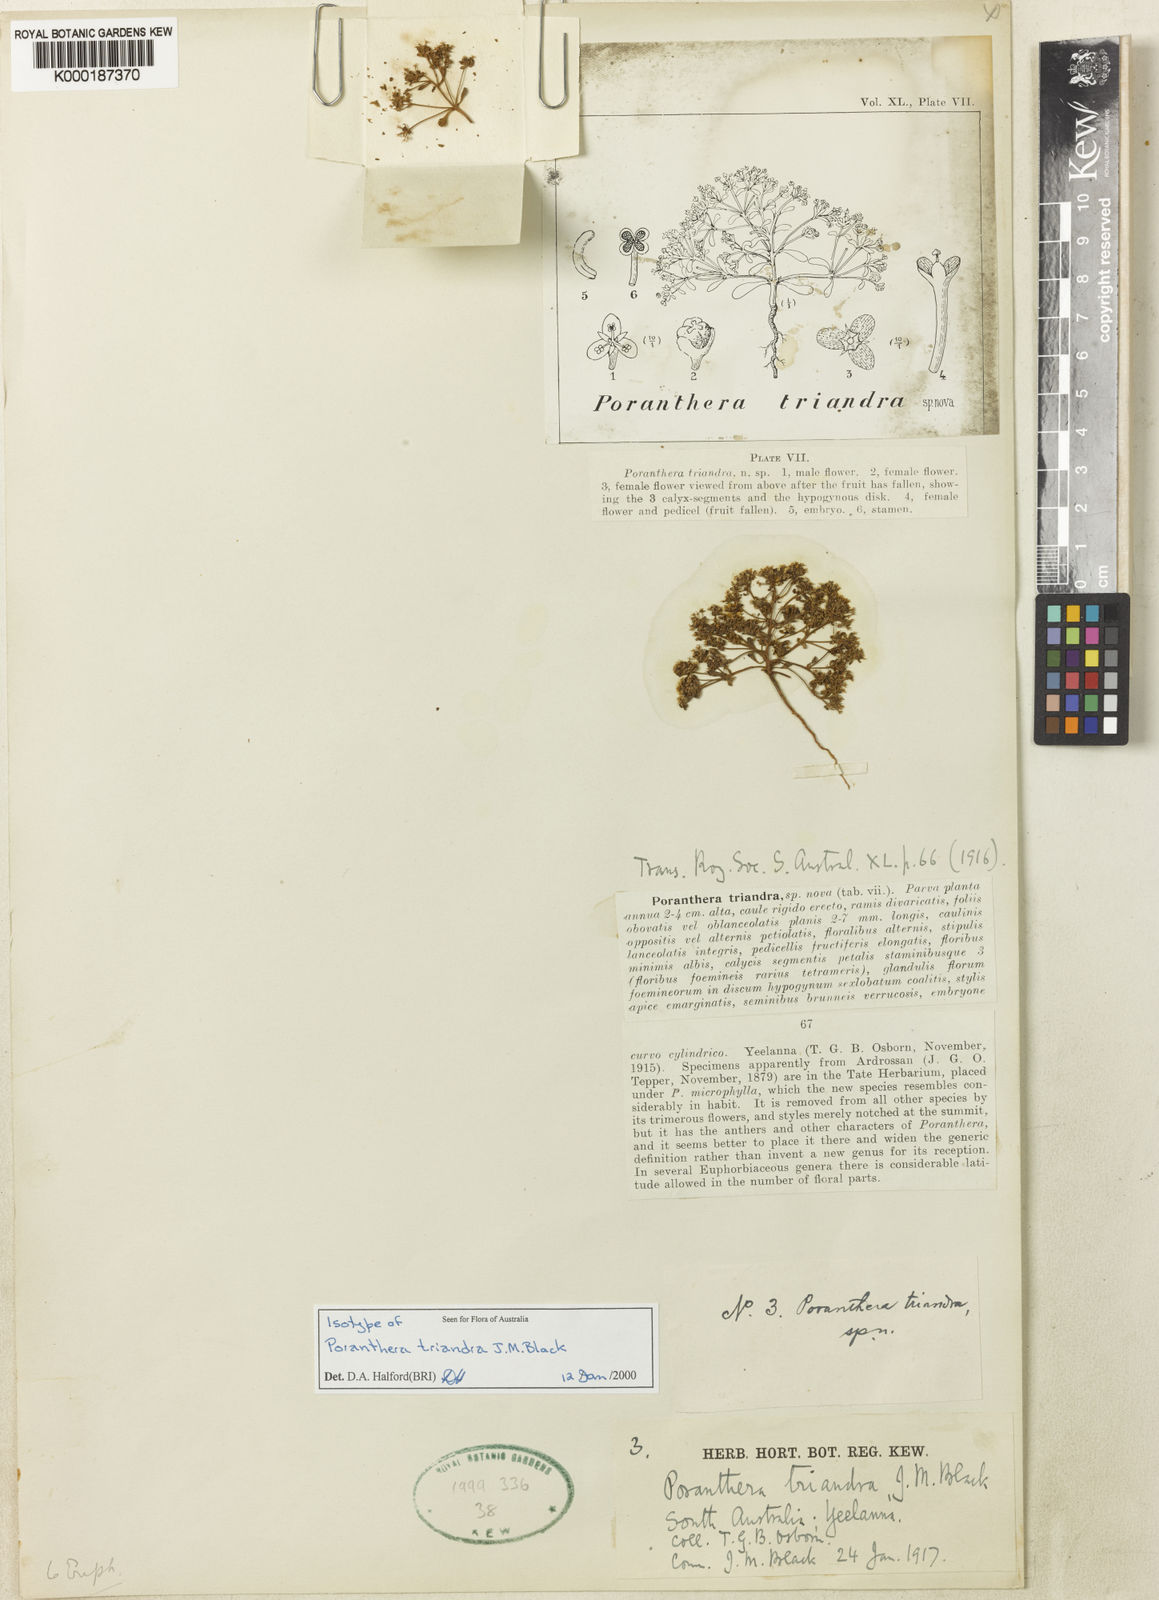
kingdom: Plantae
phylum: Tracheophyta
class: Magnoliopsida
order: Malpighiales
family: Phyllanthaceae
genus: Poranthera
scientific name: Poranthera triandra
